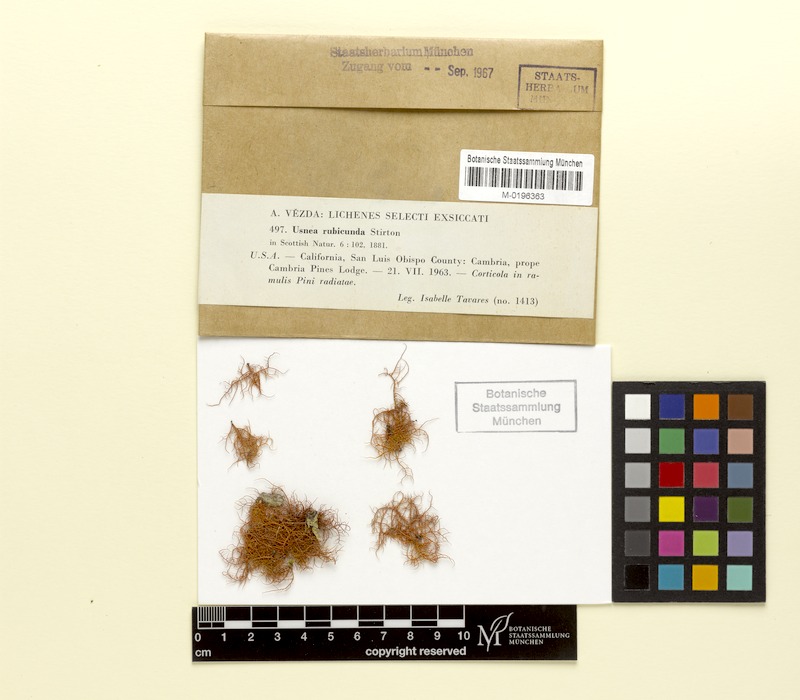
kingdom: Fungi
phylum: Ascomycota
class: Lecanoromycetes
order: Lecanorales
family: Parmeliaceae
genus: Usnea
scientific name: Usnea rubicunda
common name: Red beard lichen
